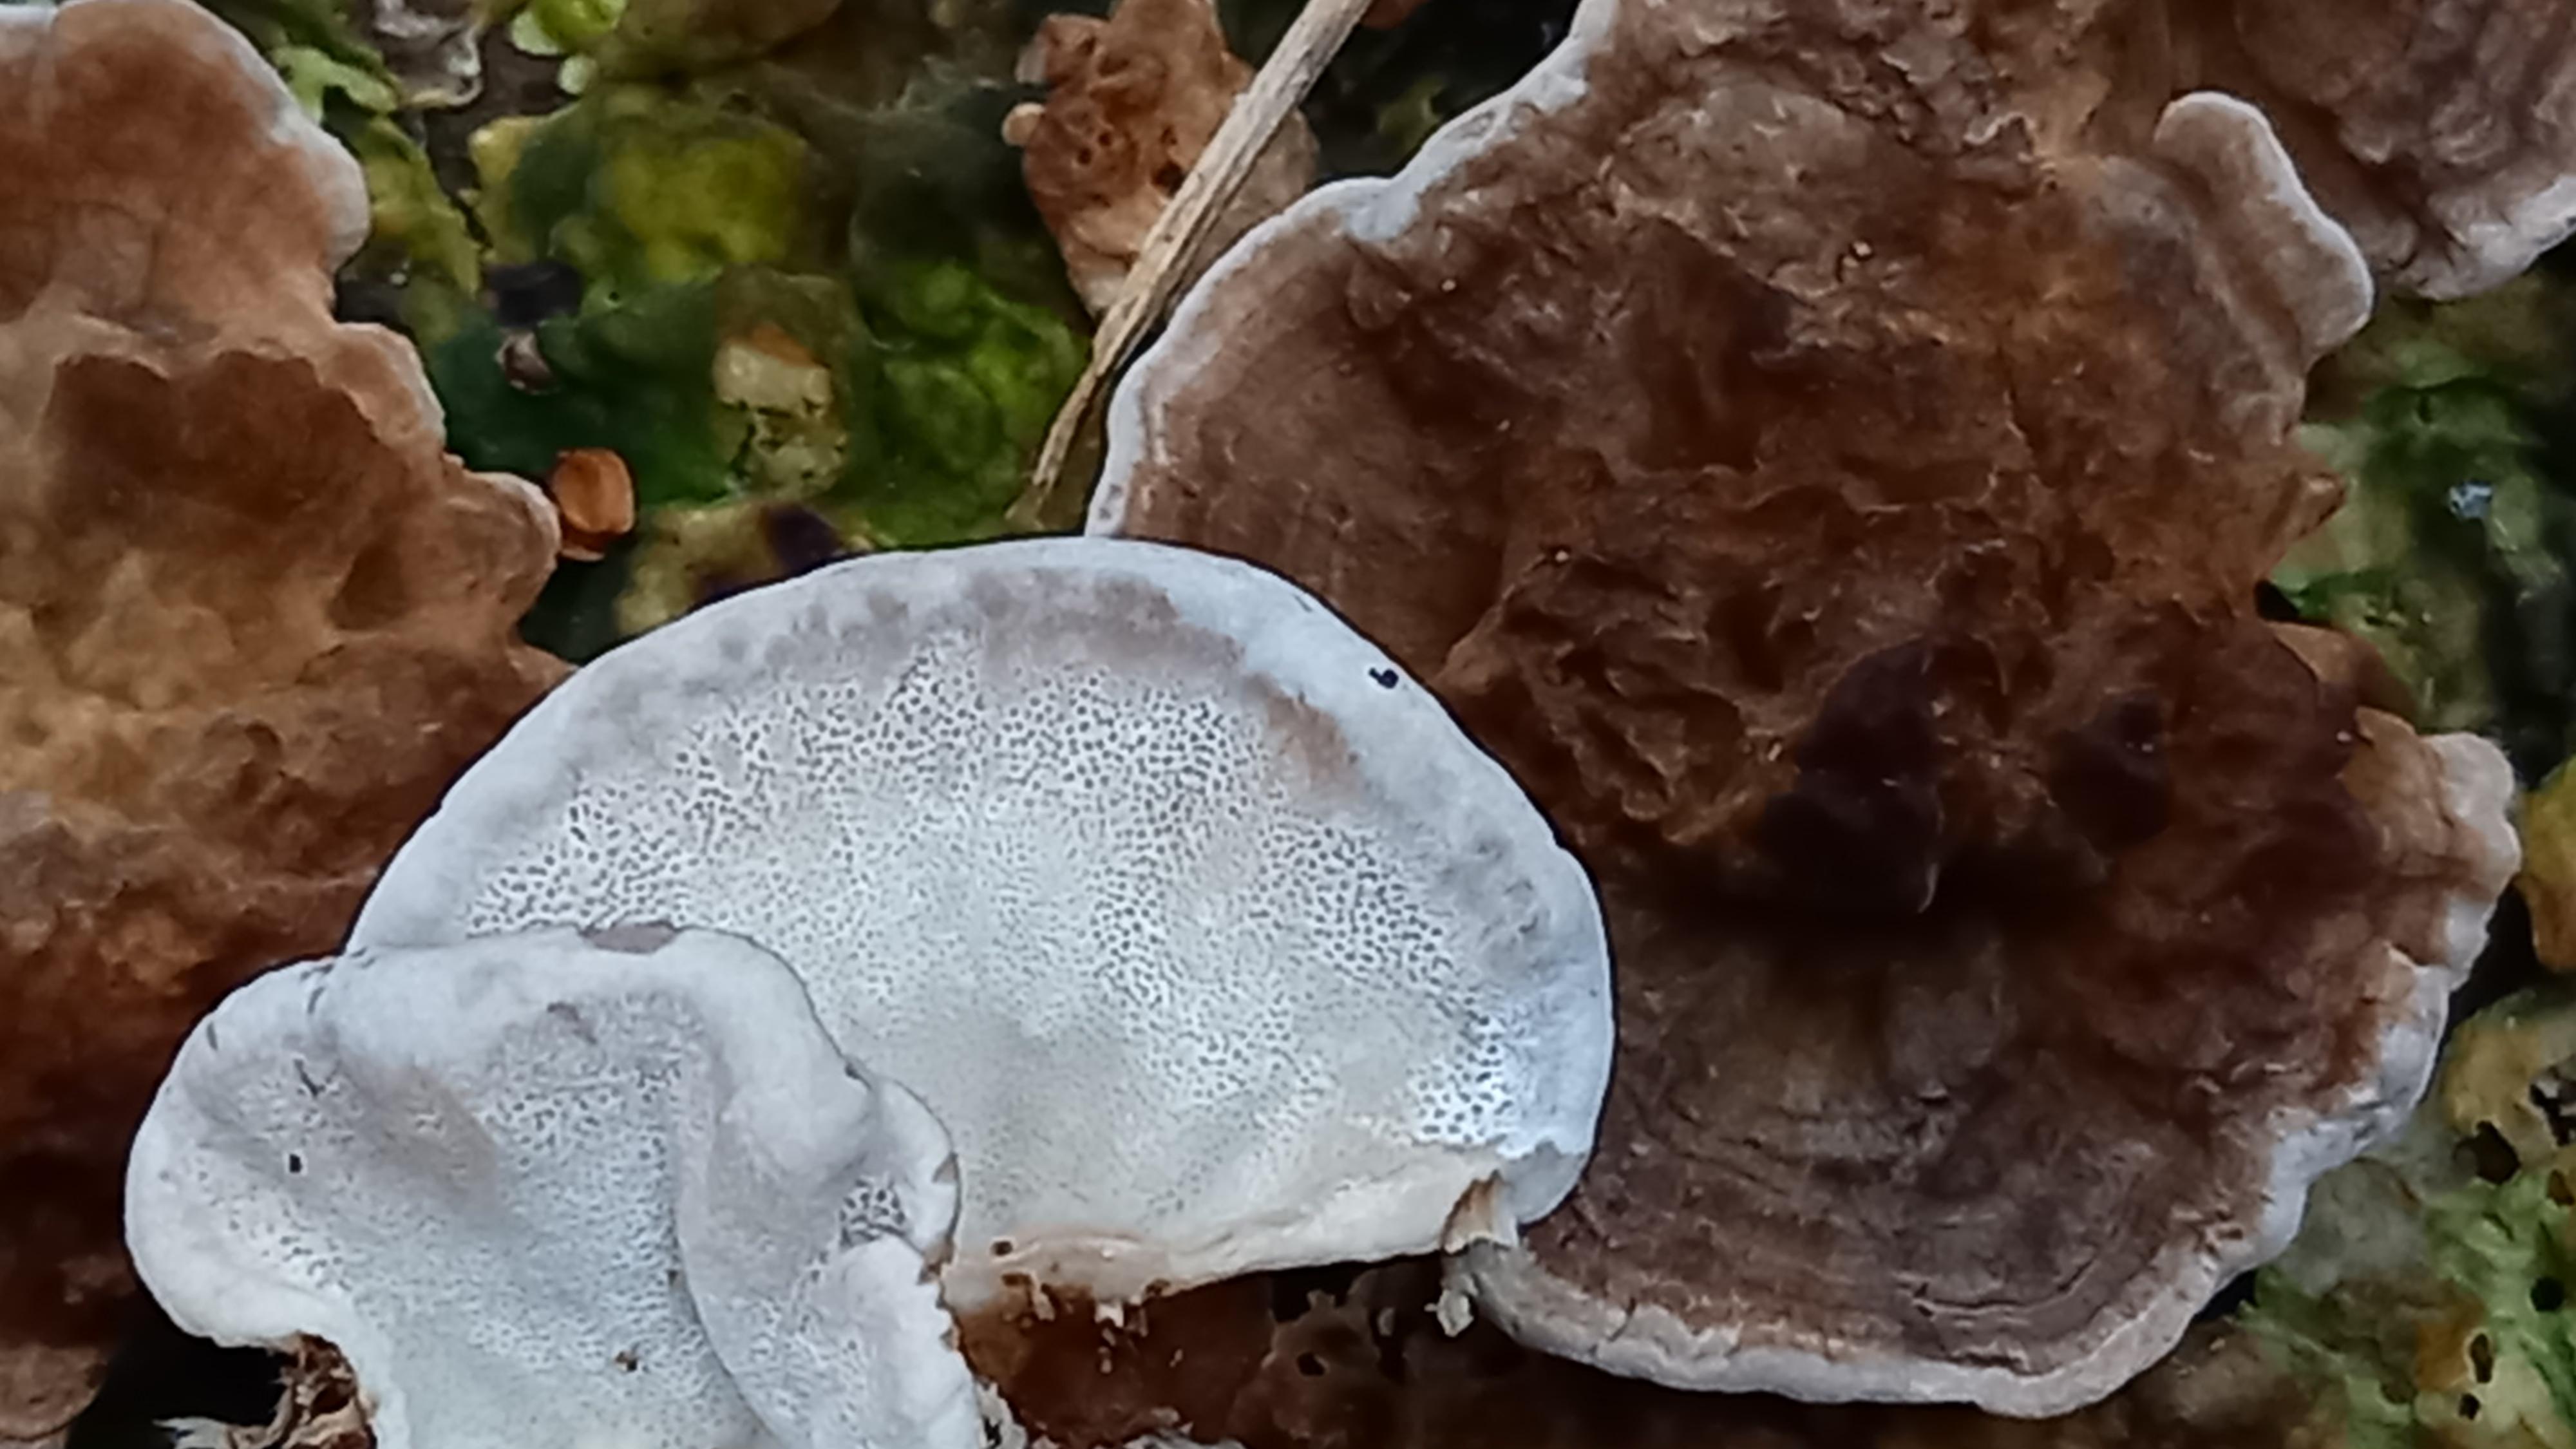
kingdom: Fungi
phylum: Basidiomycota
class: Agaricomycetes
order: Polyporales
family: Polyporaceae
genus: Trametes
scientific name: Trametes versicolor
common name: broget læderporesvamp
